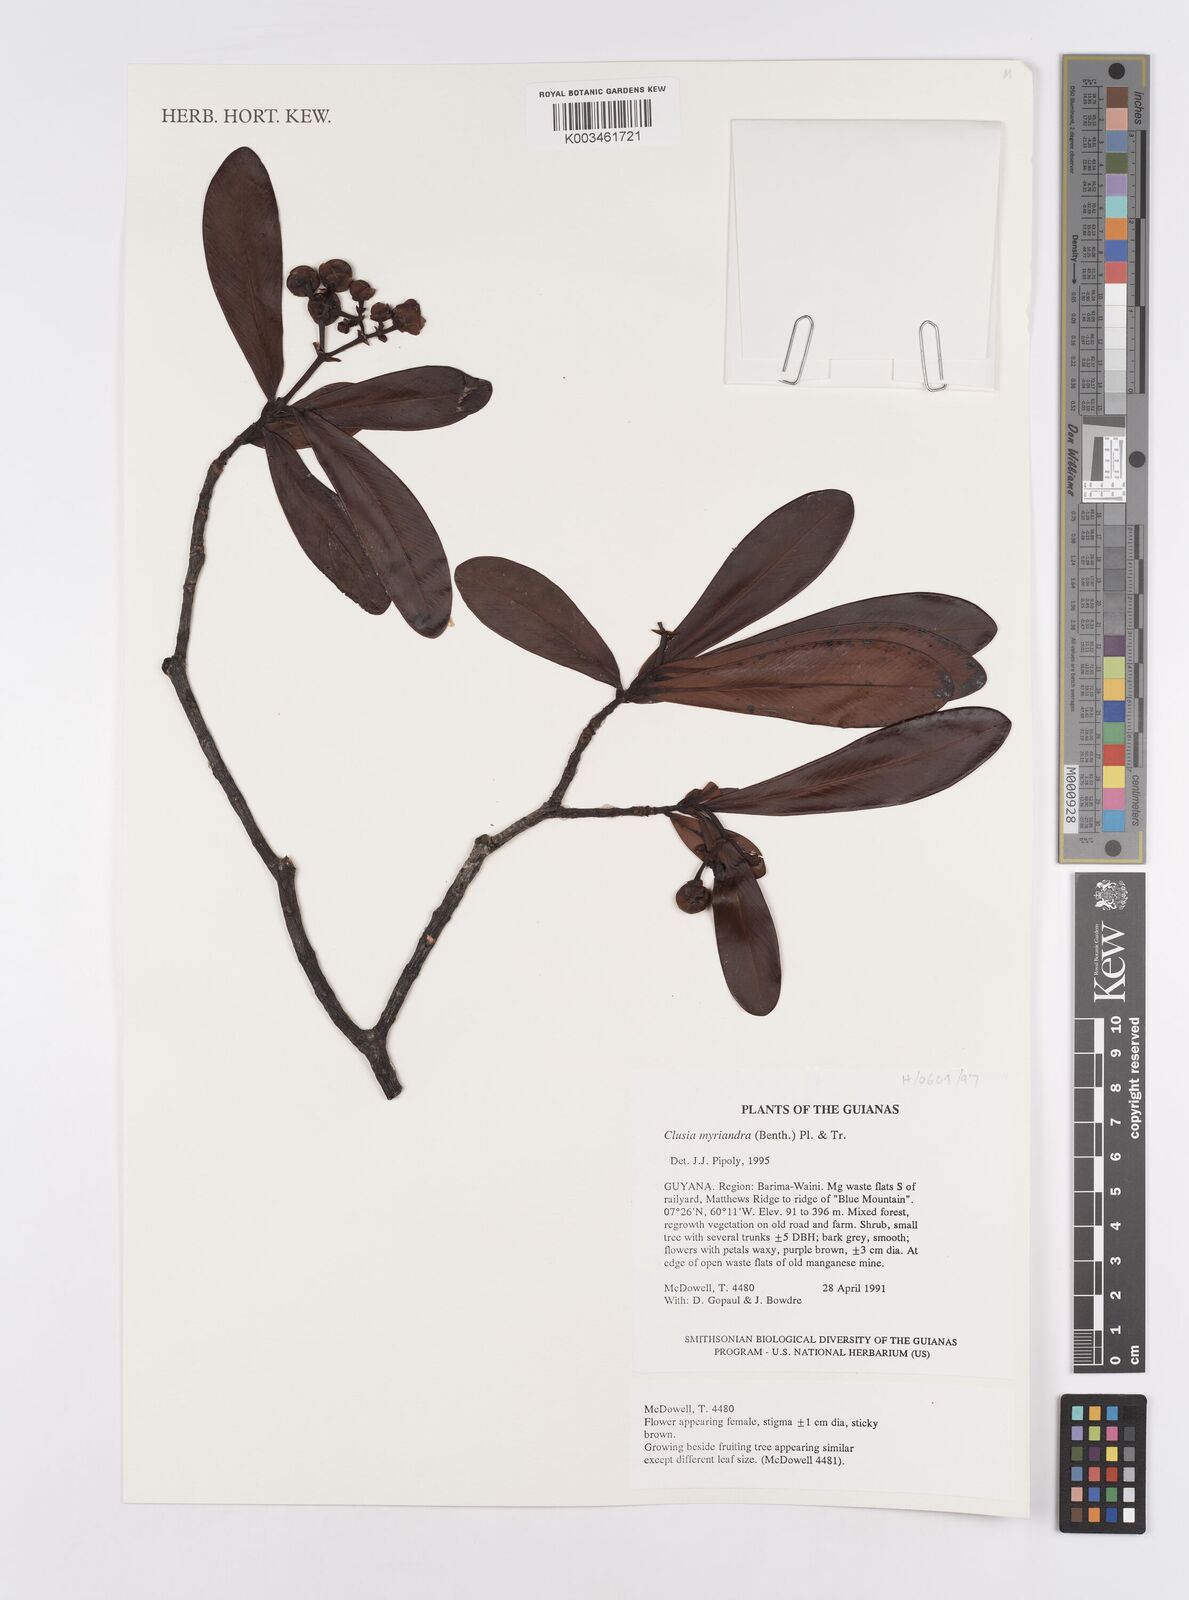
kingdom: Plantae
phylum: Tracheophyta
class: Magnoliopsida
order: Malpighiales
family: Clusiaceae
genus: Clusia
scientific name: Clusia myriandra
